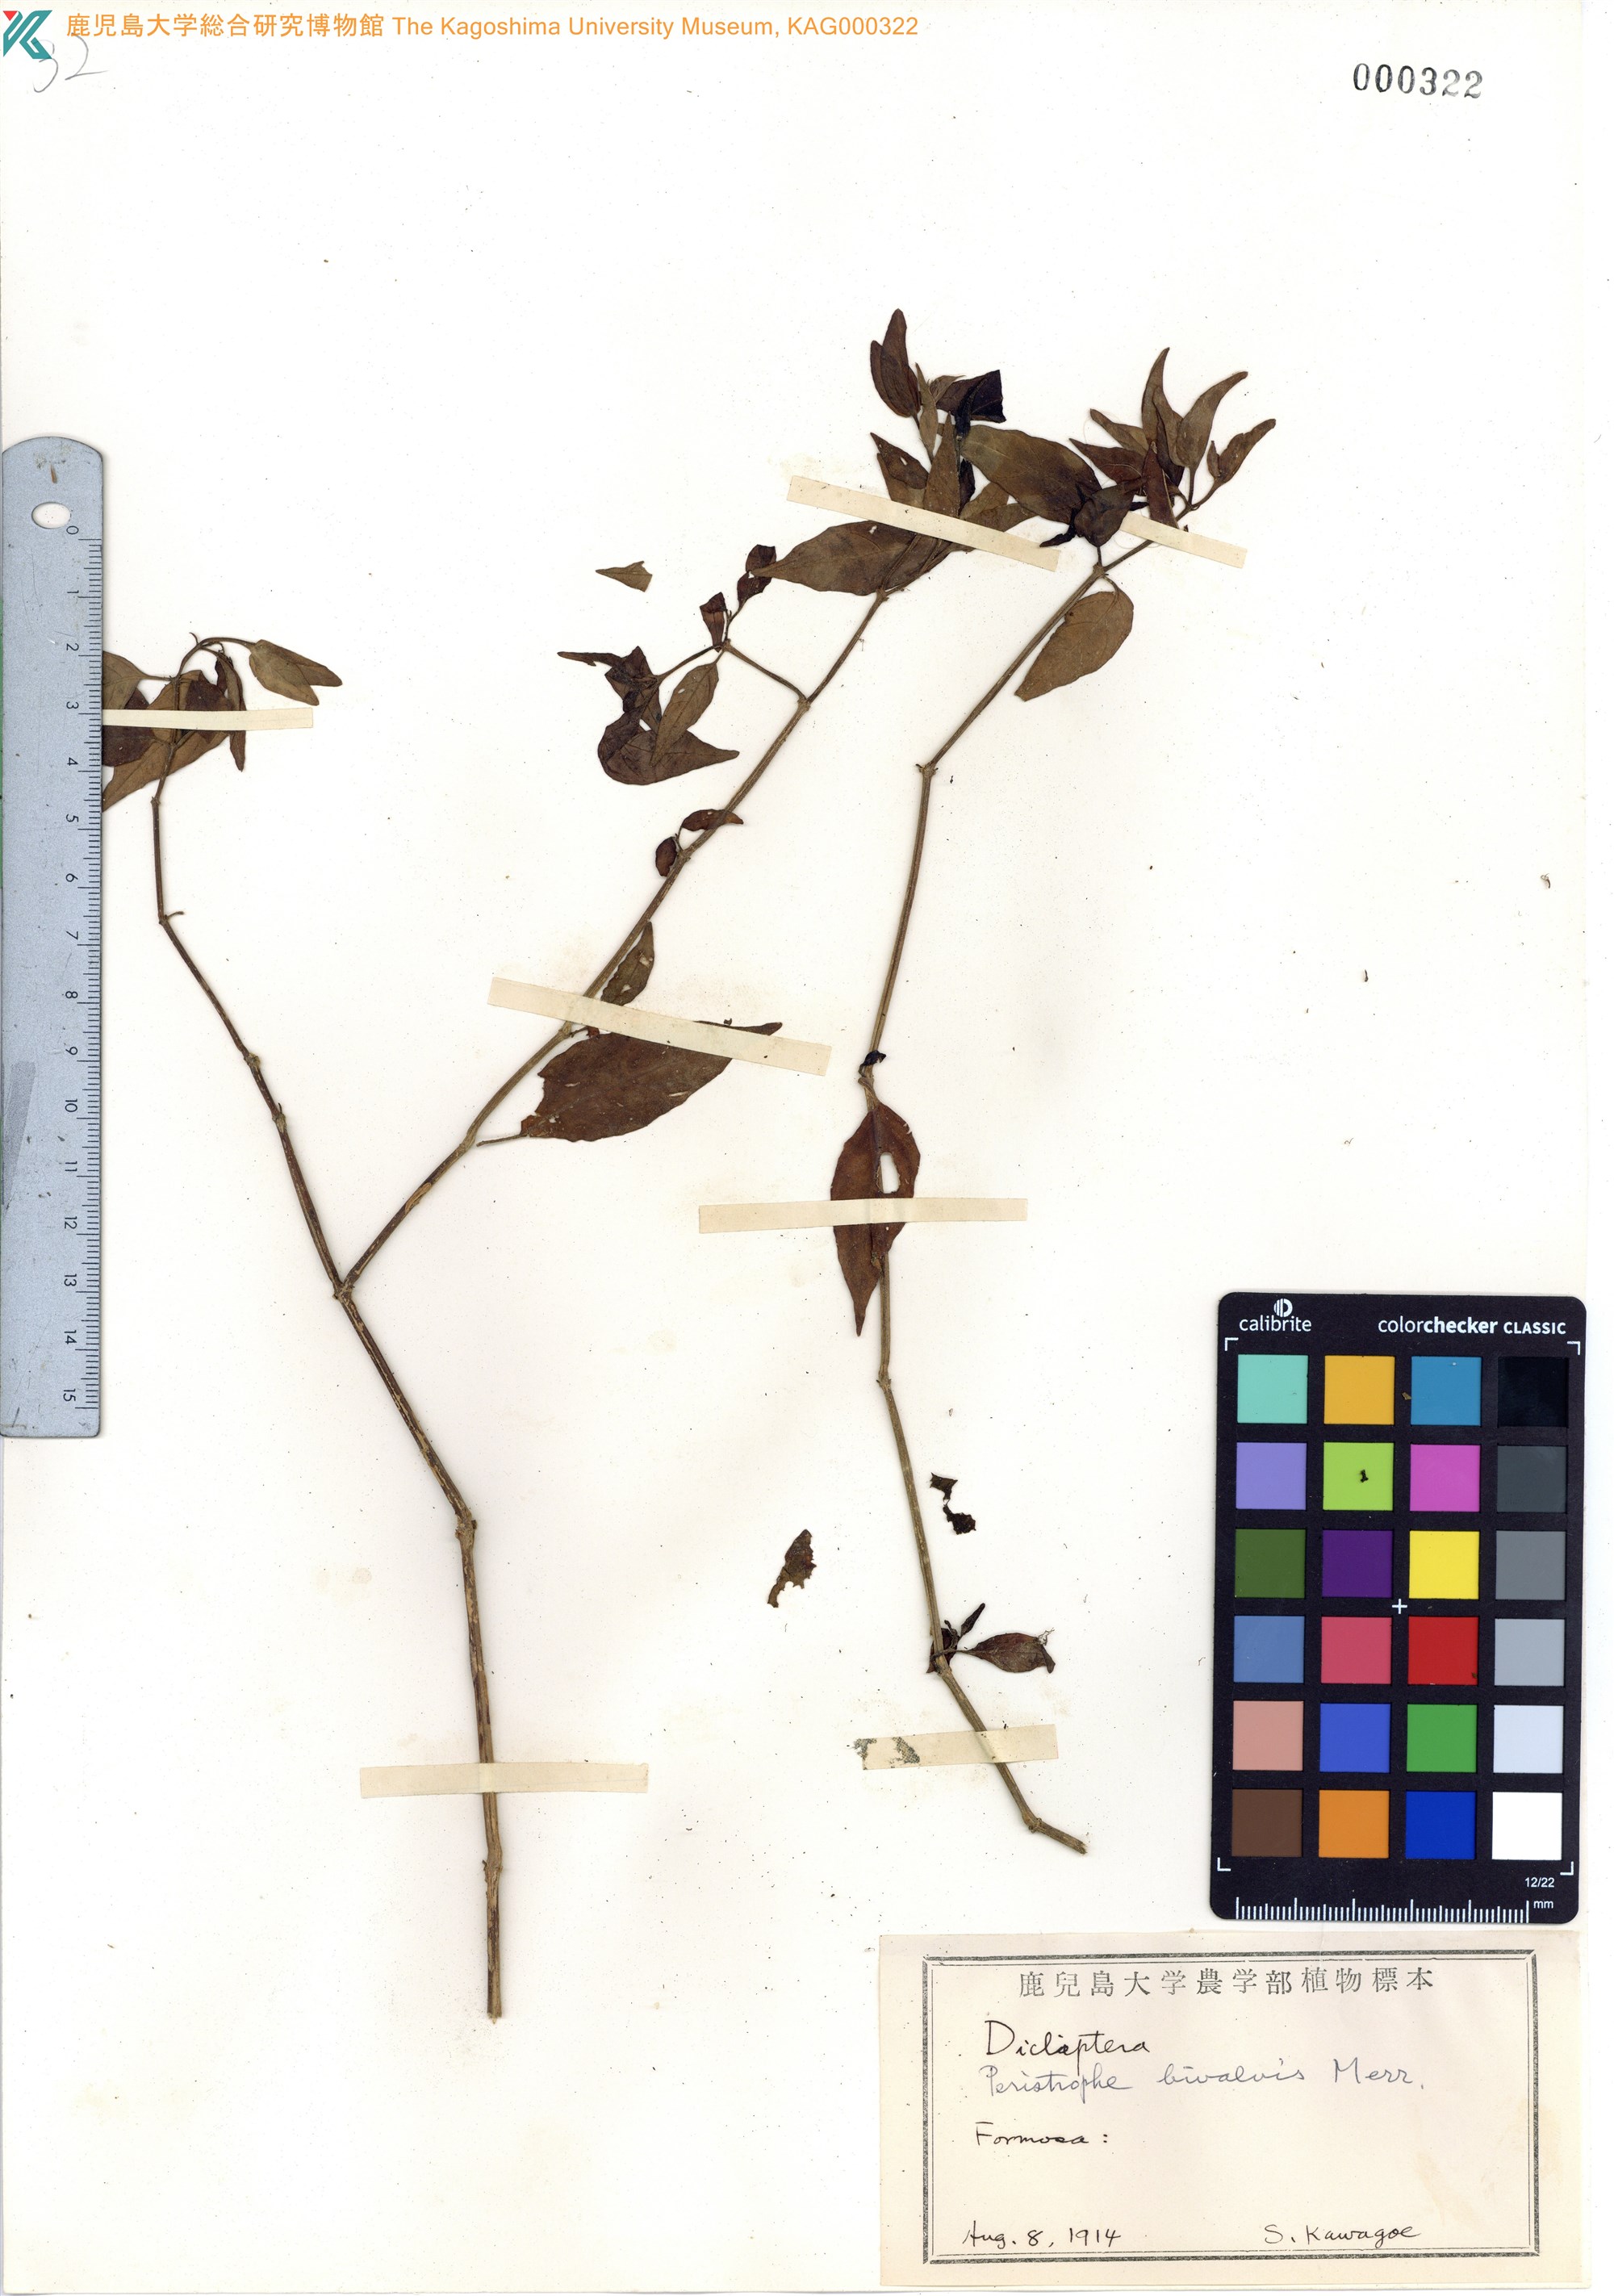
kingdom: Plantae
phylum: Tracheophyta
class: Magnoliopsida
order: Lamiales
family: Acanthaceae
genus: Dicliptera
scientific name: Dicliptera tinctoria
